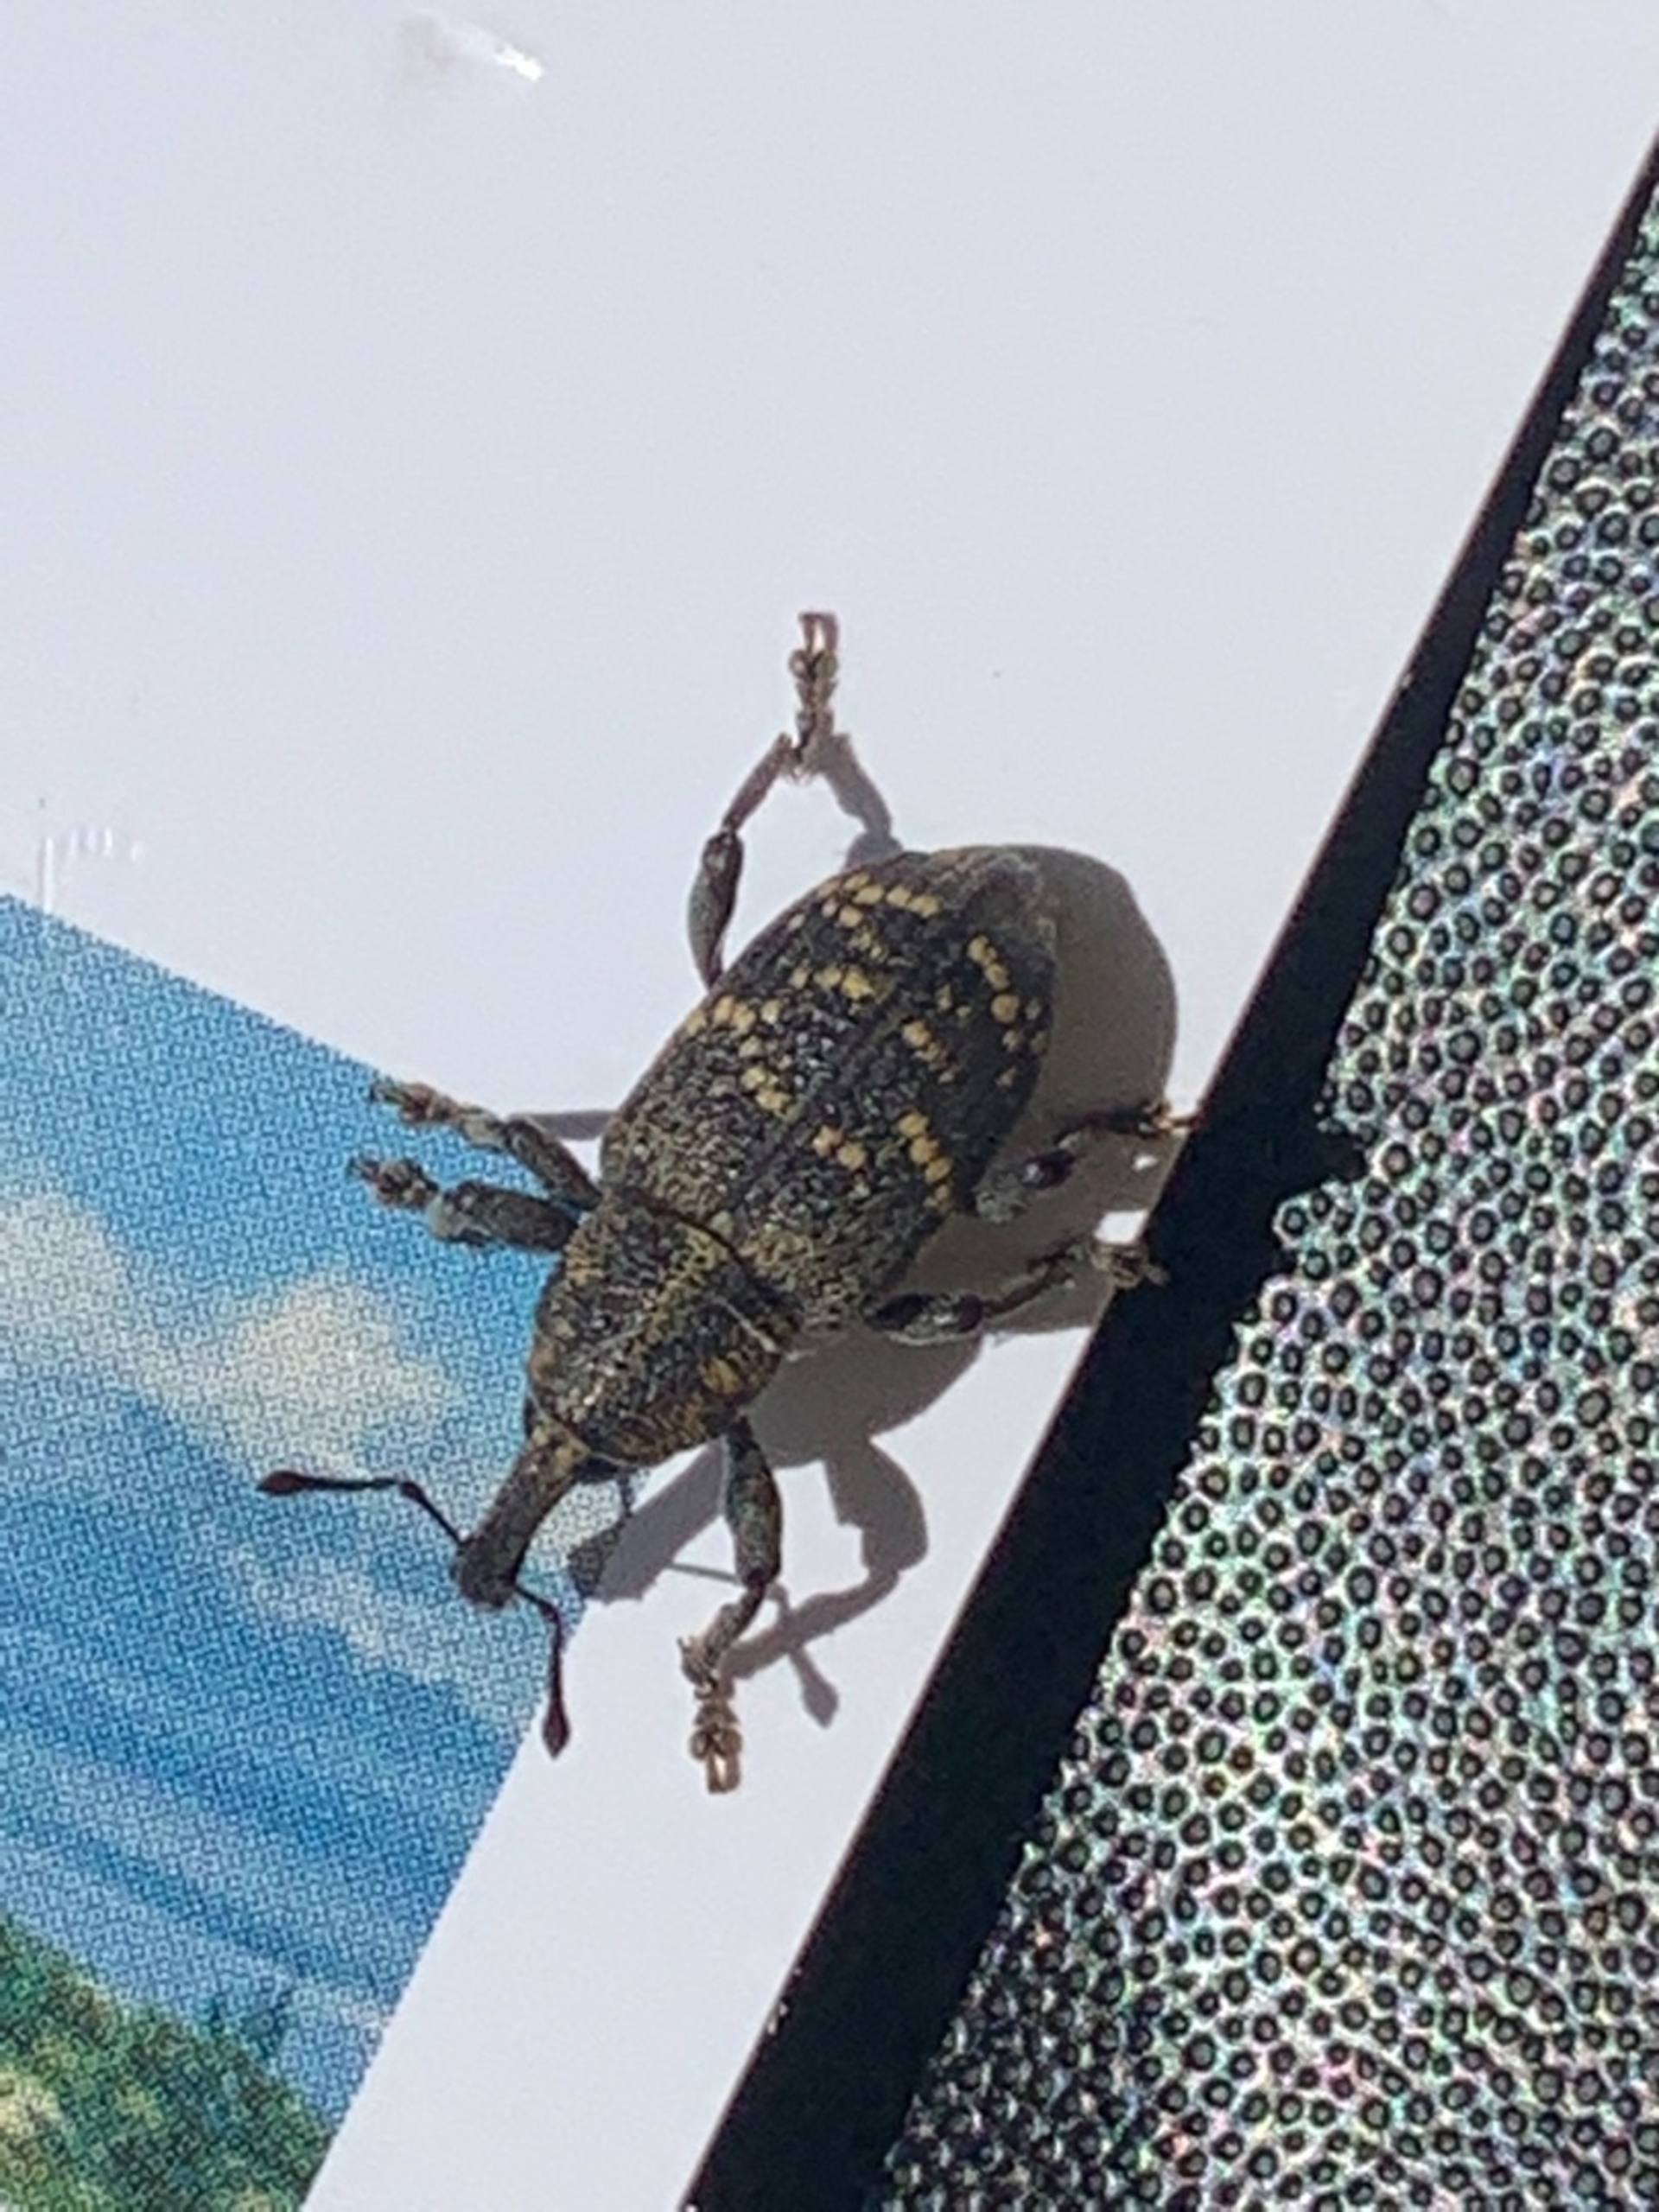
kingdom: Animalia
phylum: Arthropoda
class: Insecta
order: Coleoptera
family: Curculionidae
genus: Hylobius
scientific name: Hylobius abietis
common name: Stor nåletræsnudebille
